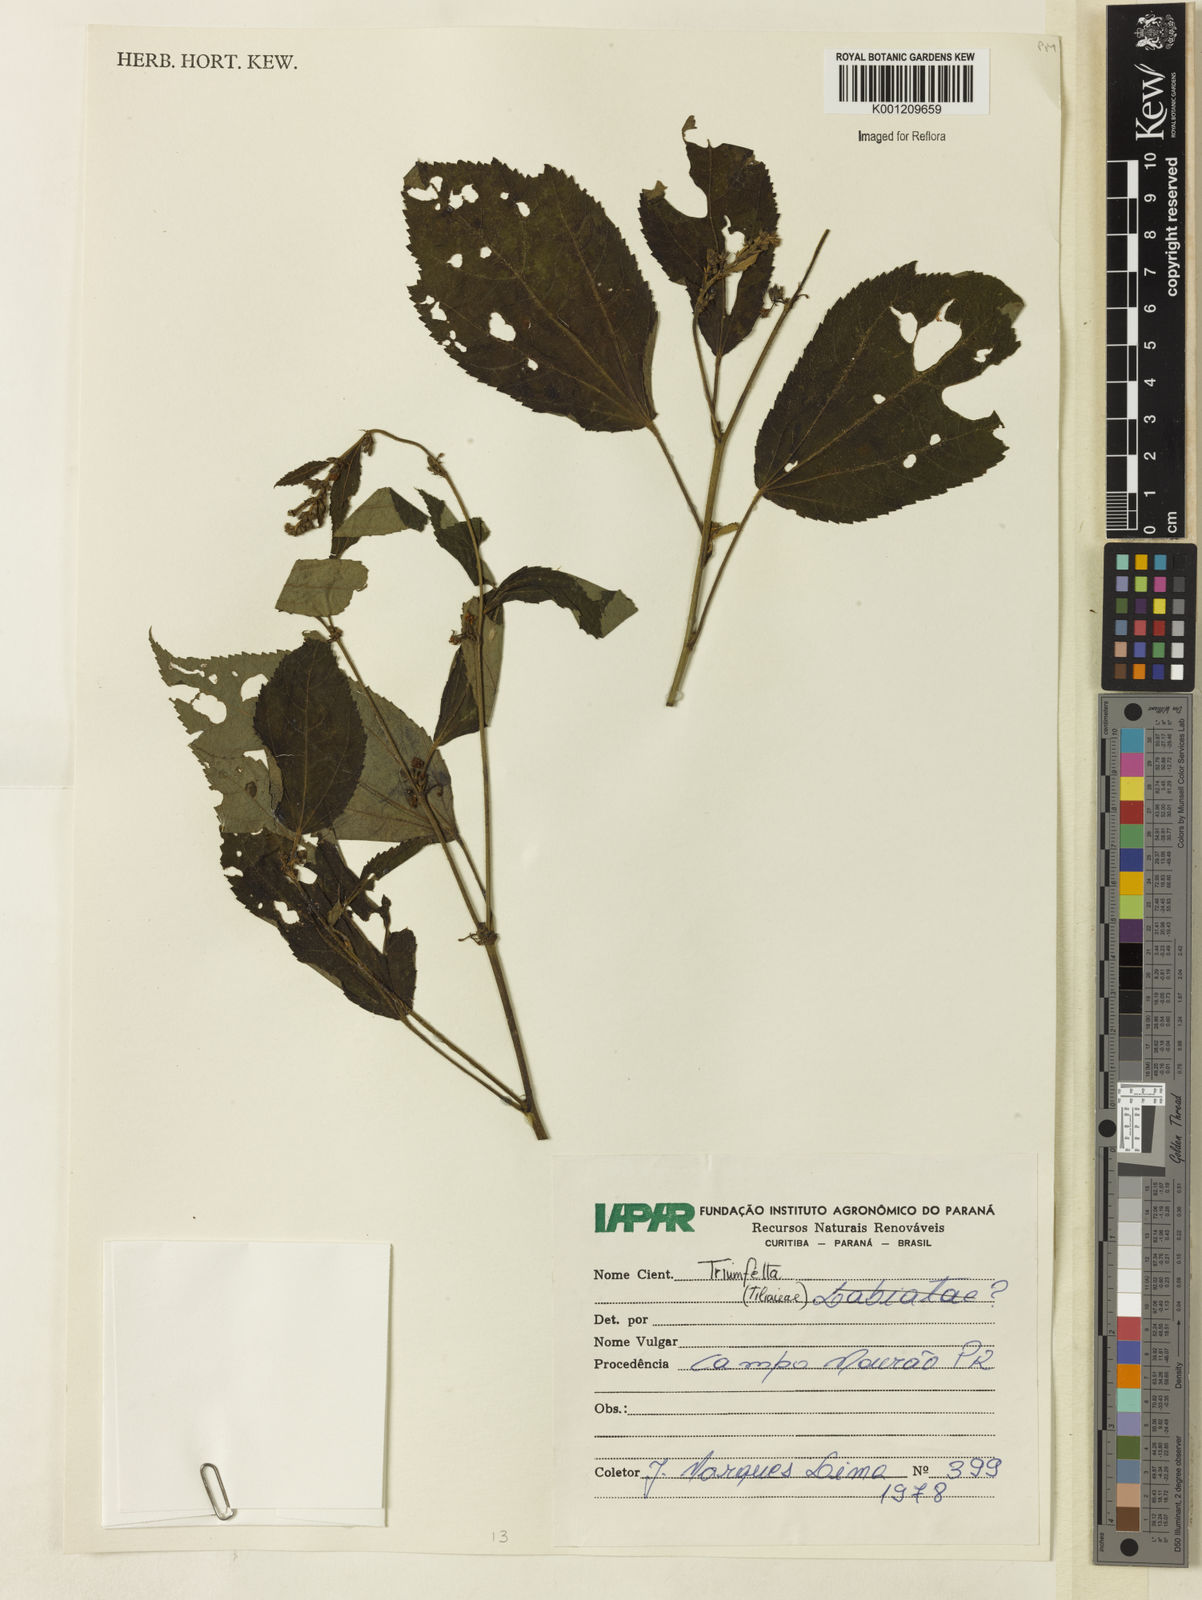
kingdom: Plantae
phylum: Tracheophyta
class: Magnoliopsida
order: Malvales
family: Malvaceae
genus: Triumfetta
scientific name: Triumfetta
